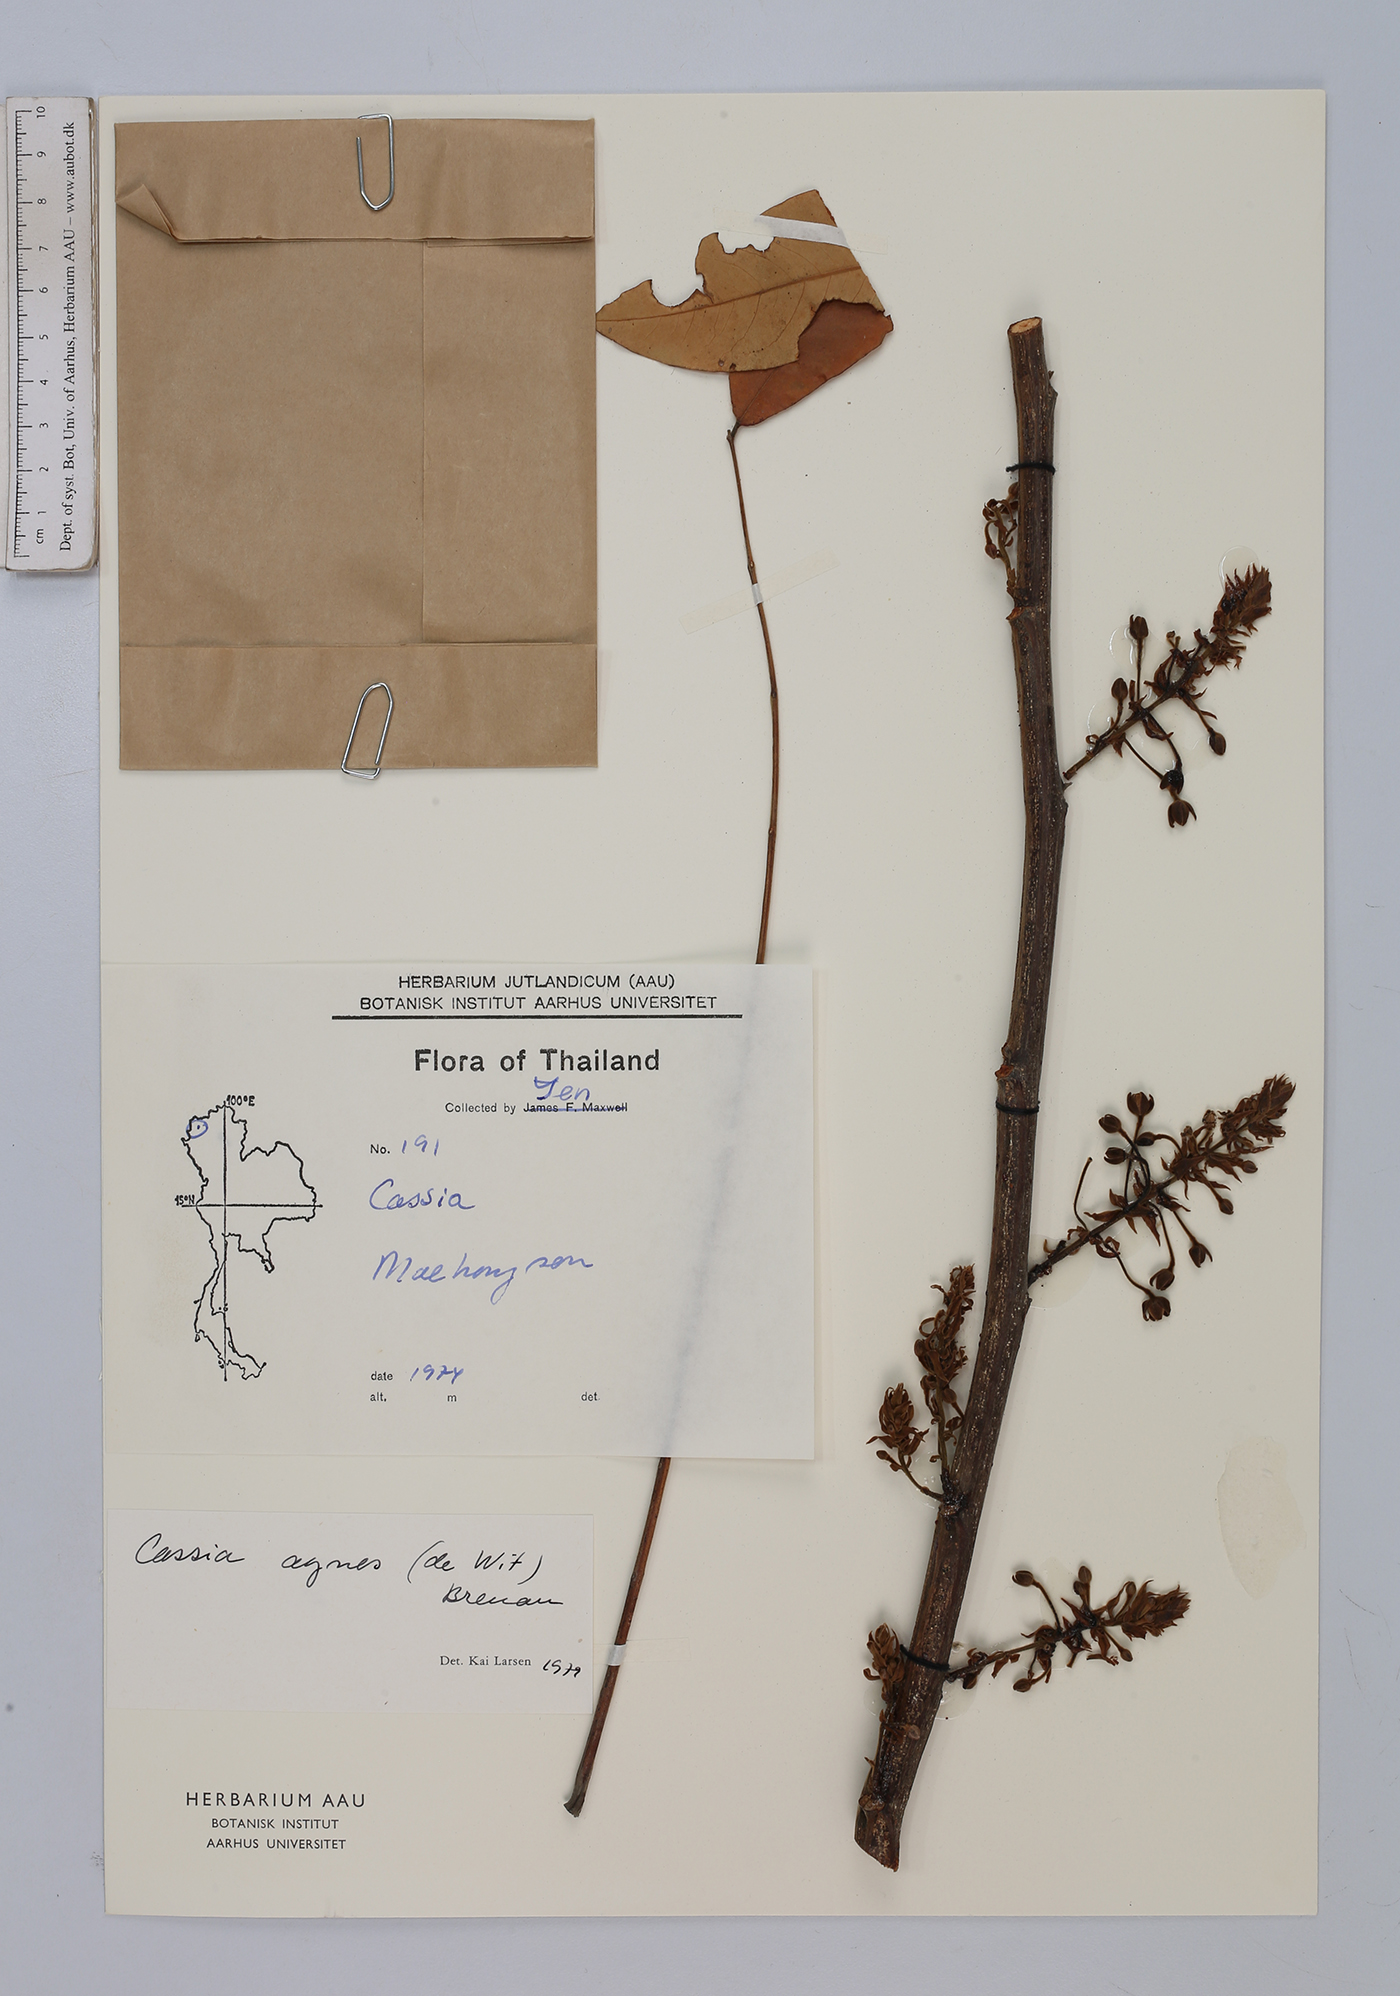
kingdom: Plantae
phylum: Tracheophyta
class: Magnoliopsida
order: Fabales
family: Fabaceae
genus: Cassia
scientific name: Cassia javanica
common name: Apple blossom
